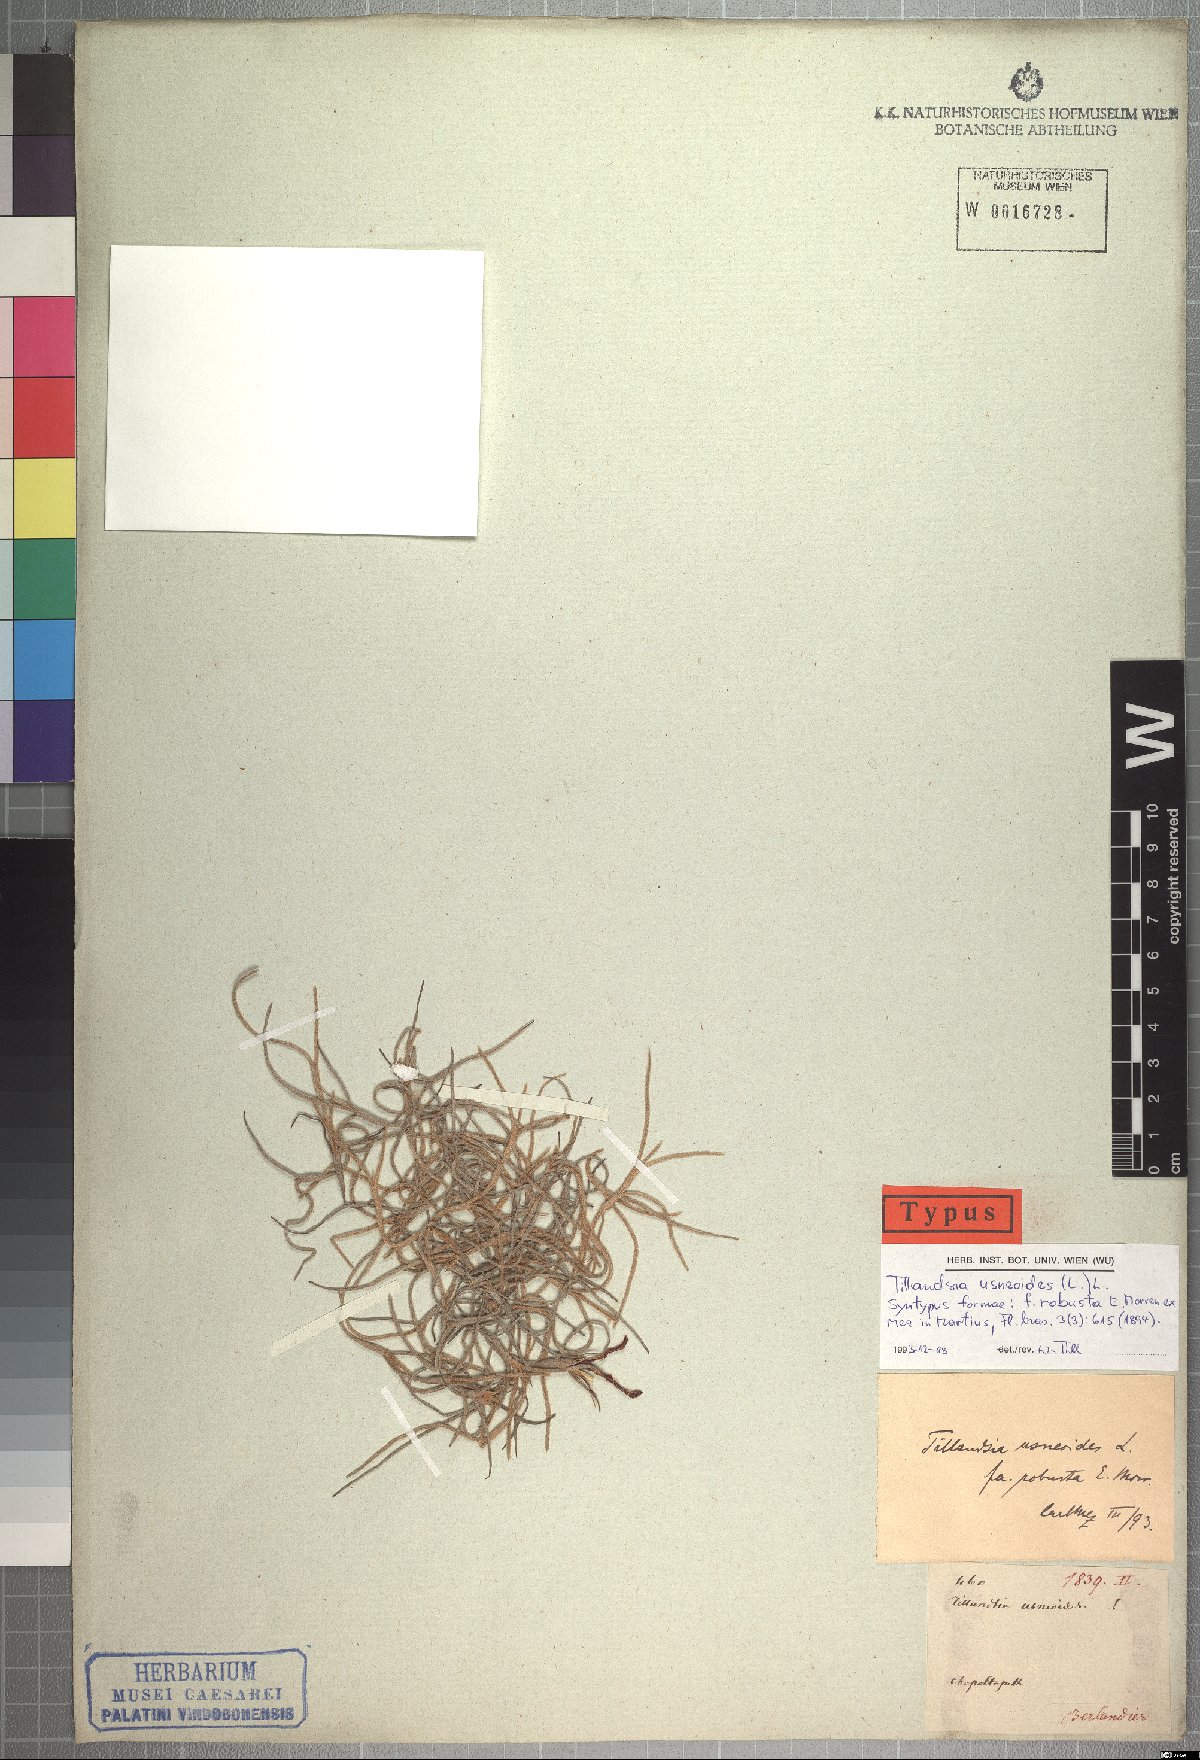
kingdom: Plantae
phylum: Tracheophyta
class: Liliopsida
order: Poales
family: Bromeliaceae
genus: Tillandsia
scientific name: Tillandsia usneoides
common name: Spanish moss
